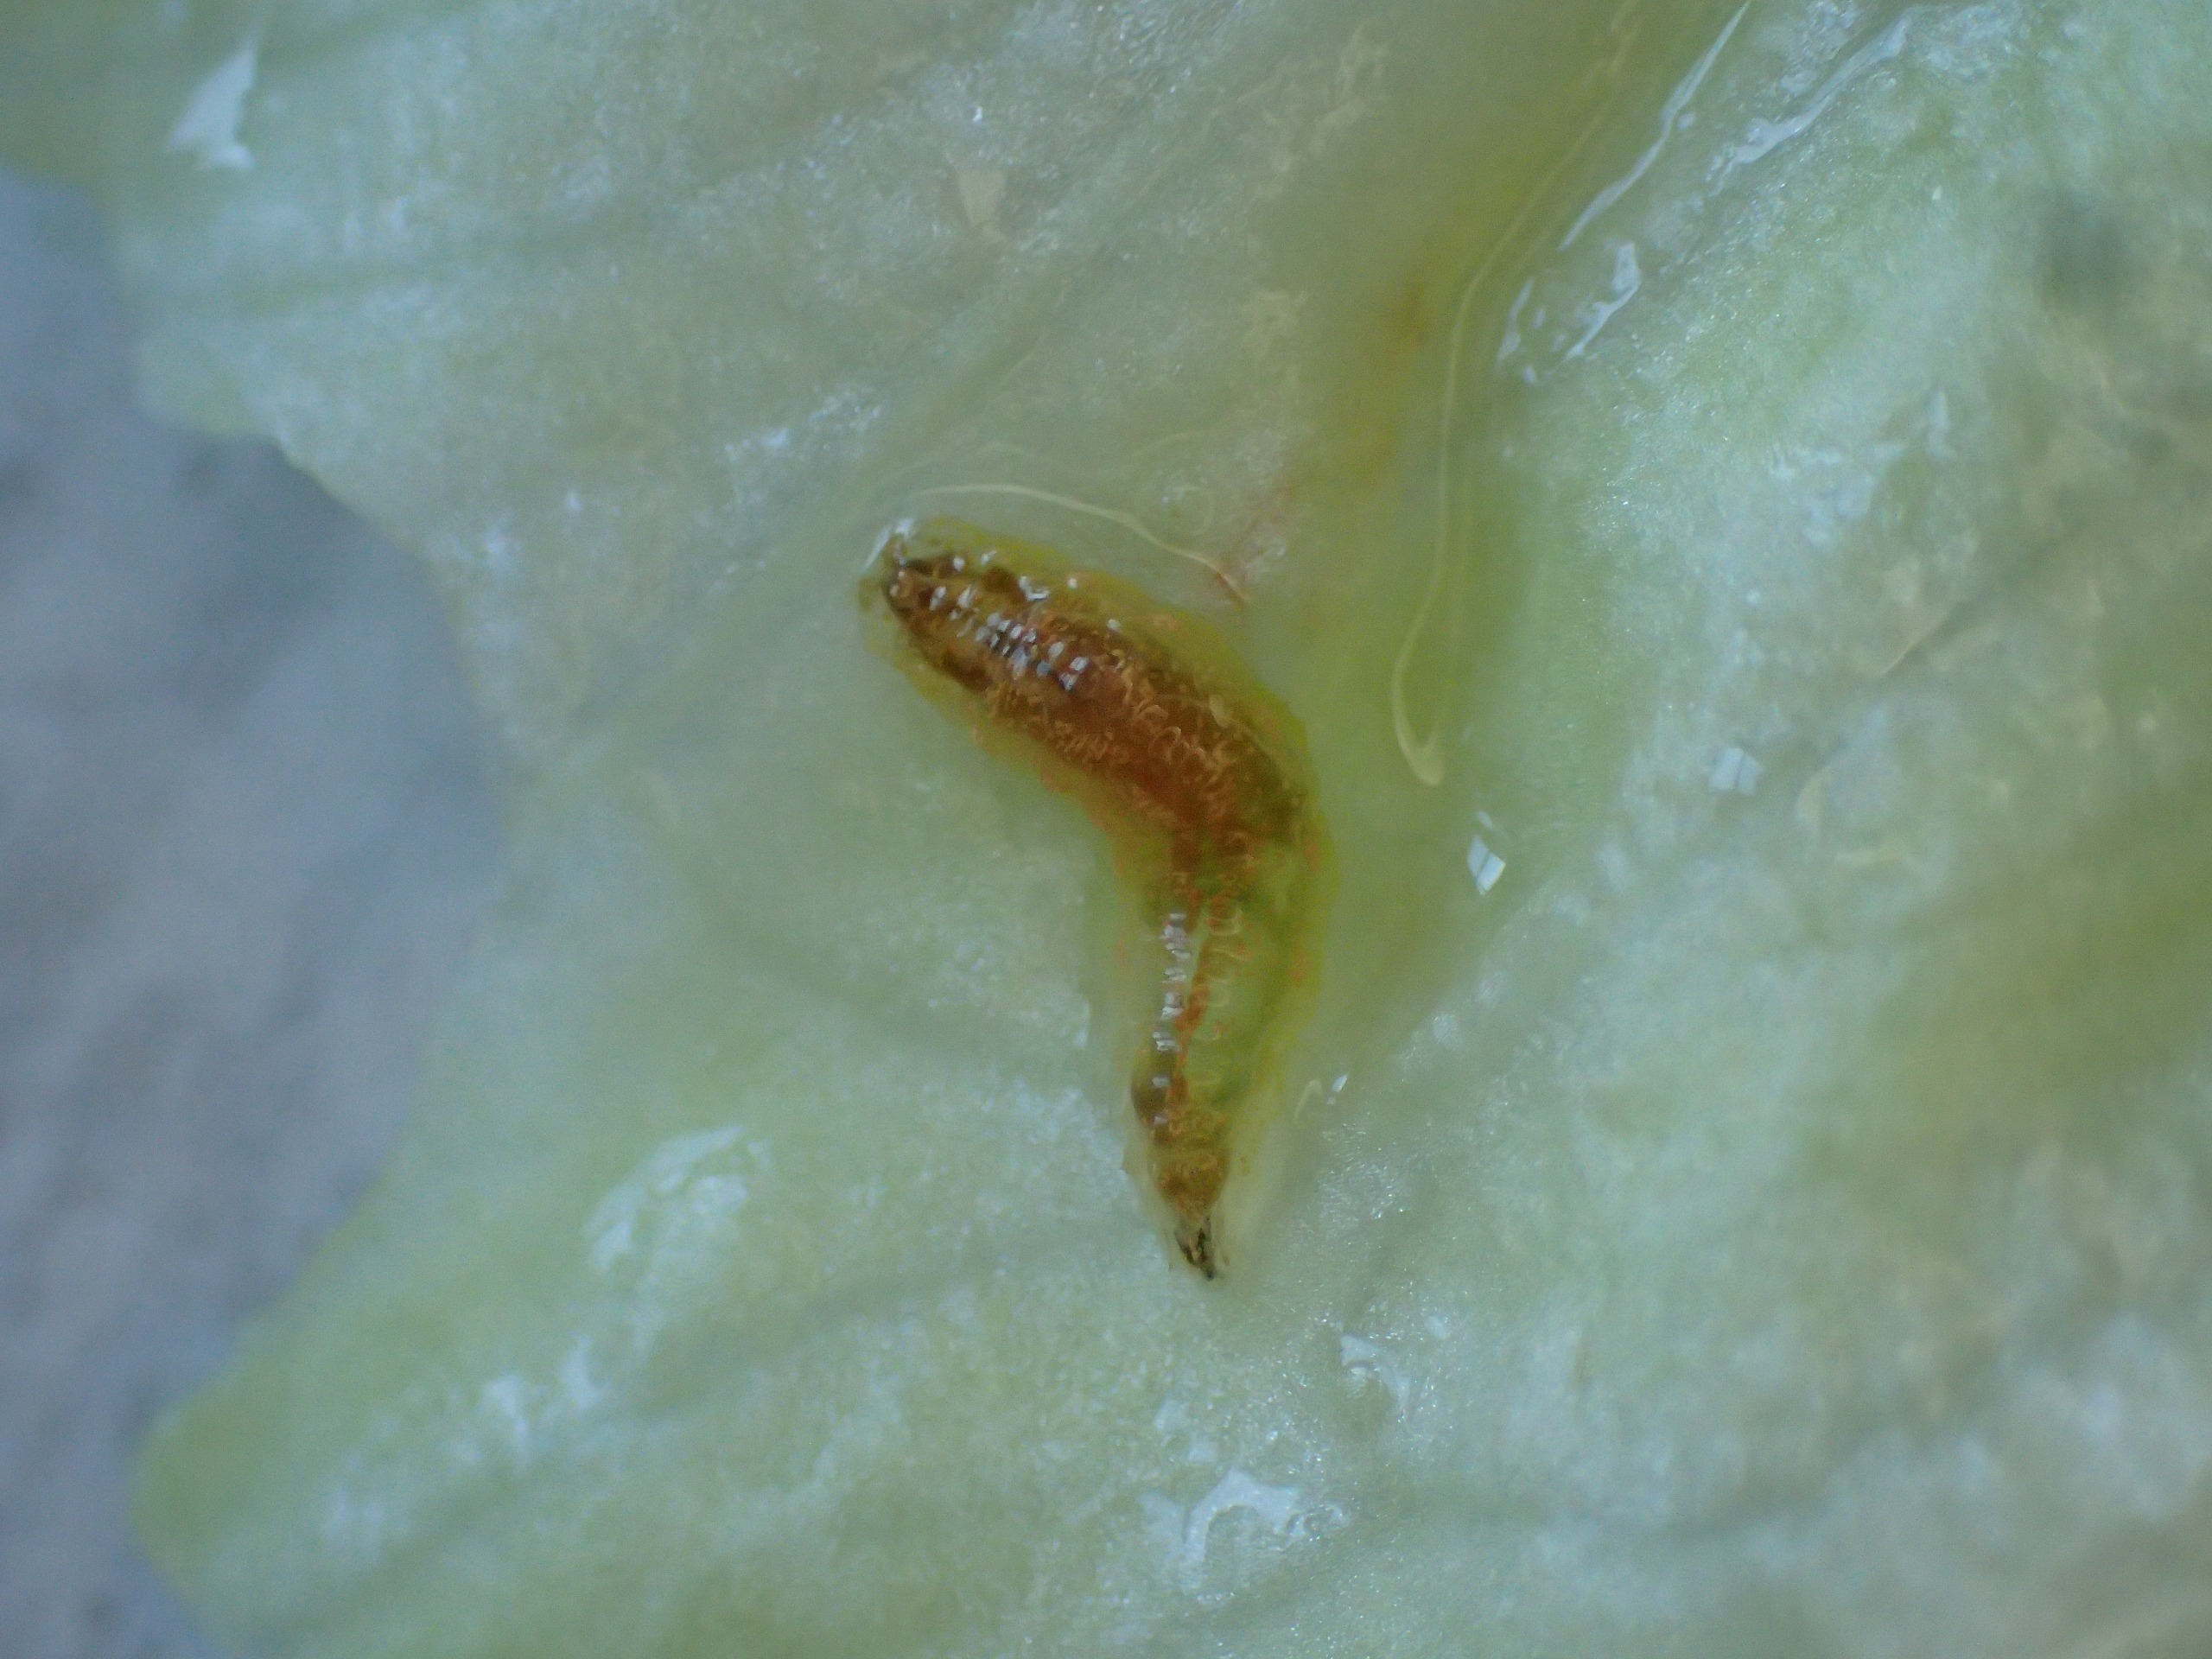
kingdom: Animalia
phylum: Arthropoda
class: Insecta
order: Diptera
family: Syrphidae
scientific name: Syrphidae
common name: Svirrefluer
